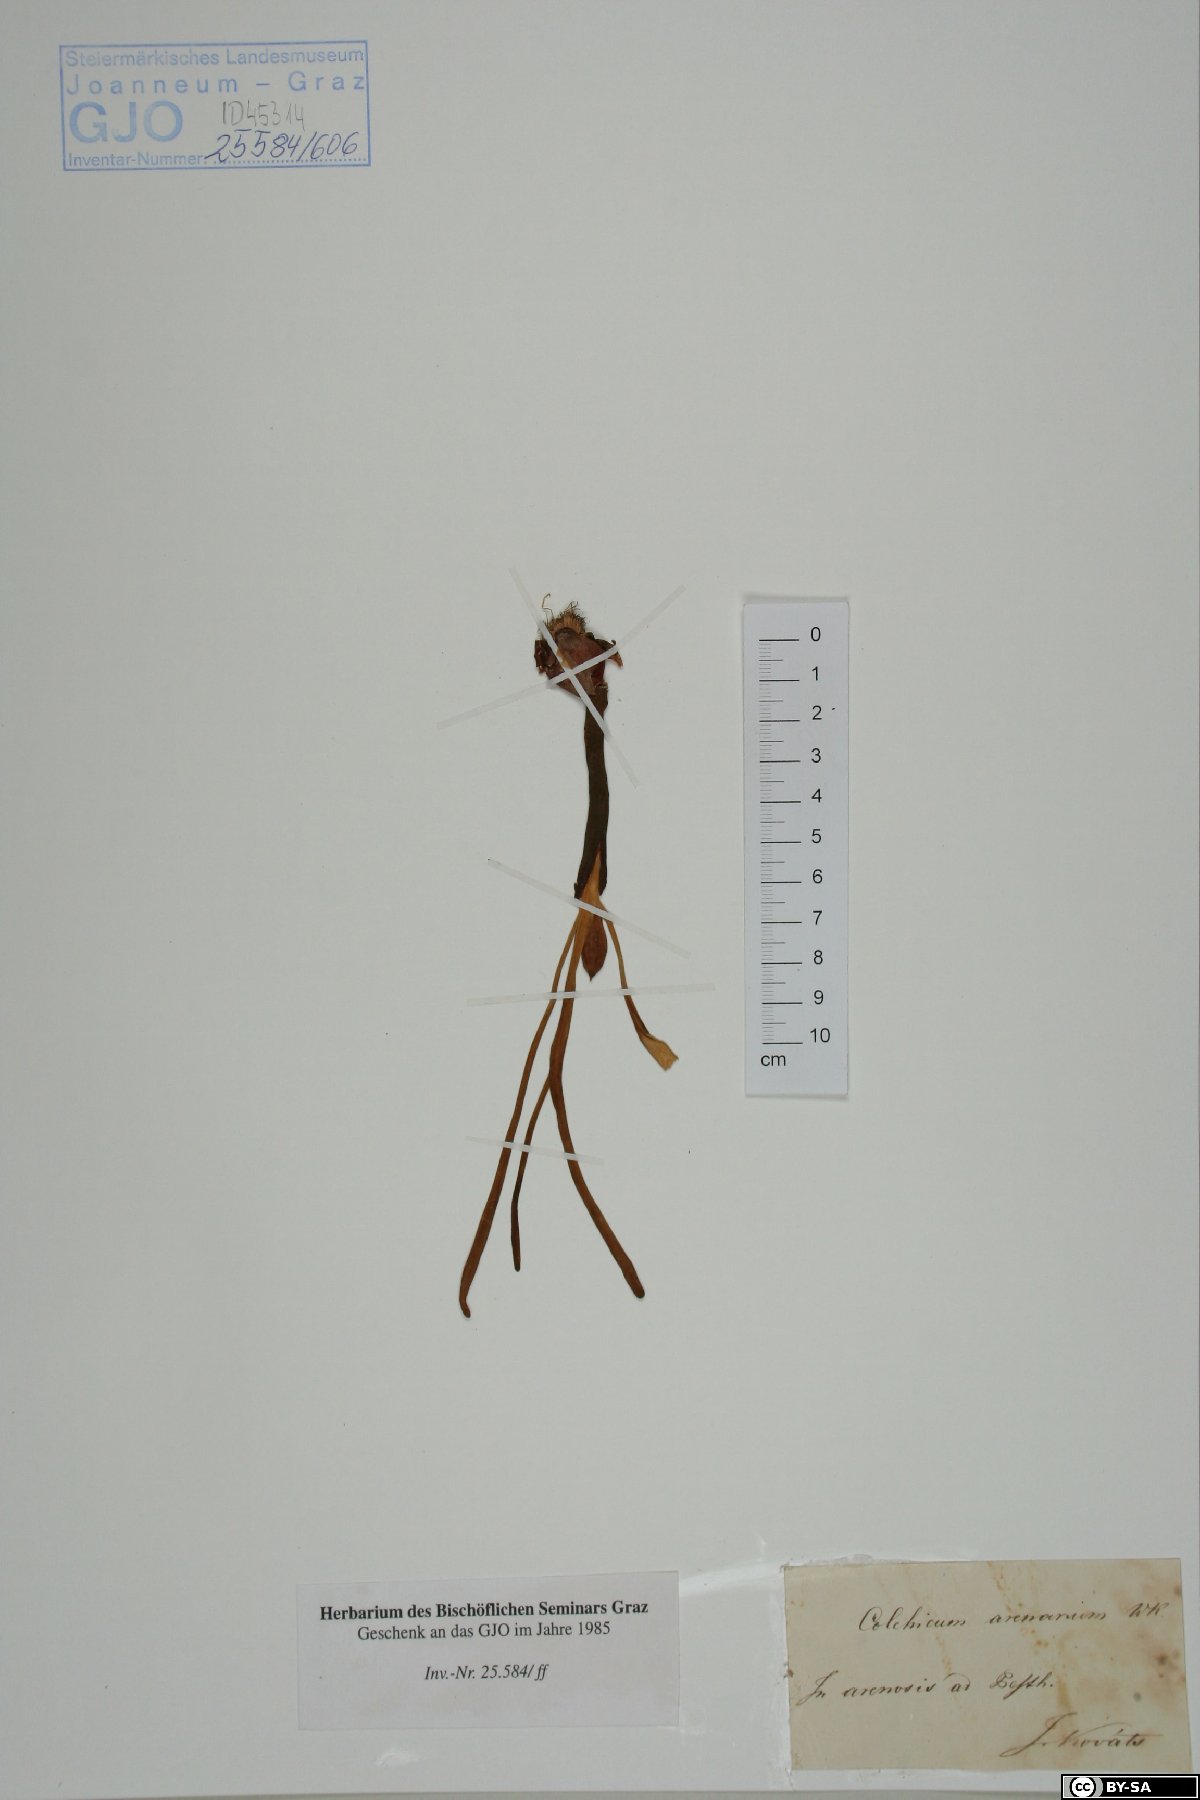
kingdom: Plantae
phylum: Tracheophyta
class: Liliopsida
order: Liliales
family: Colchicaceae
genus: Colchicum
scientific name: Colchicum arenarium
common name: Sand saffron
